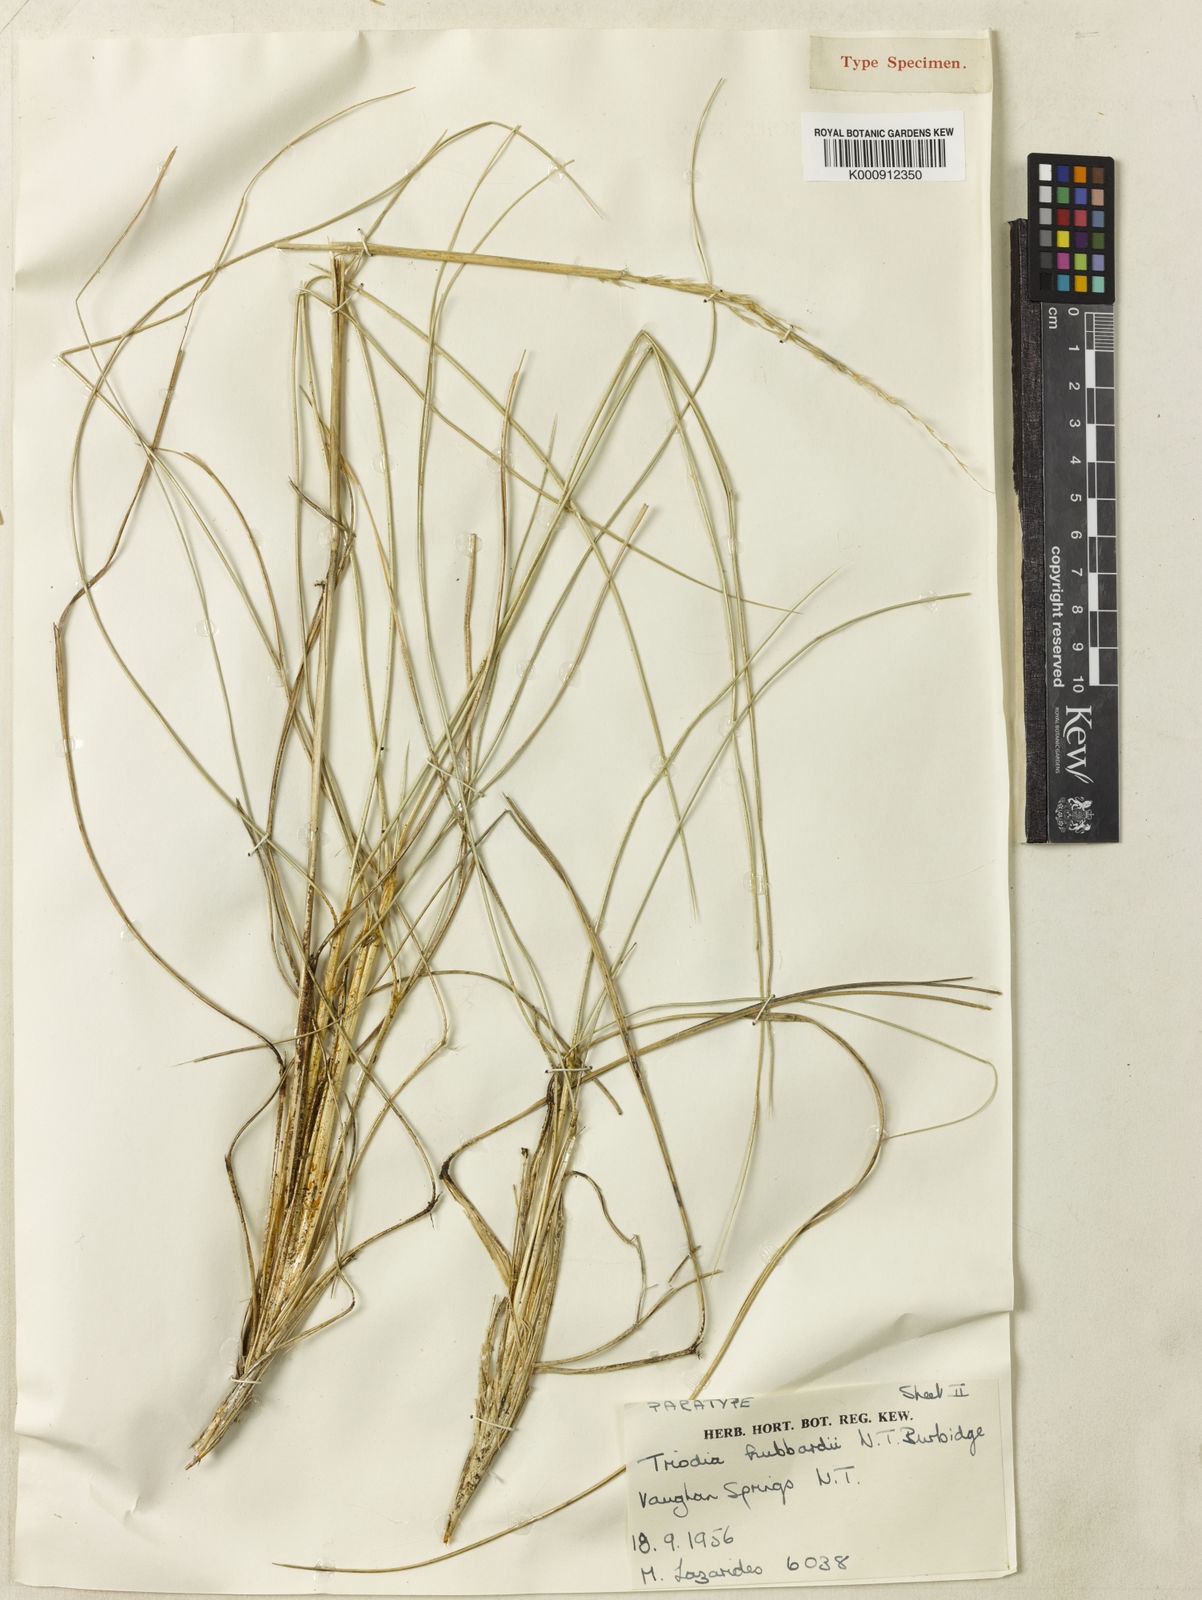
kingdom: Plantae
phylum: Tracheophyta
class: Liliopsida
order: Poales
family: Poaceae
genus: Triodia
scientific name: Triodia hubbardii
